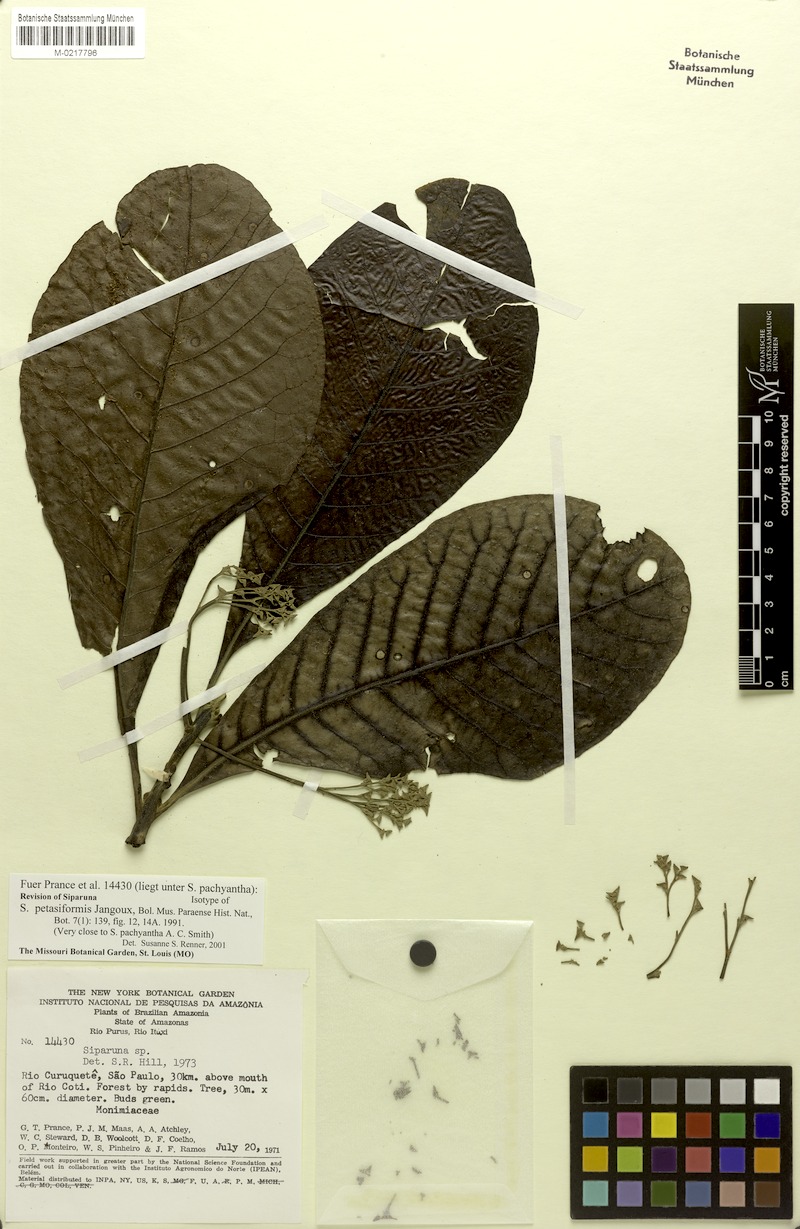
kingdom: Plantae
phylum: Tracheophyta
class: Magnoliopsida
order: Laurales
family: Siparunaceae
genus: Siparuna
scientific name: Siparuna petasiformis
